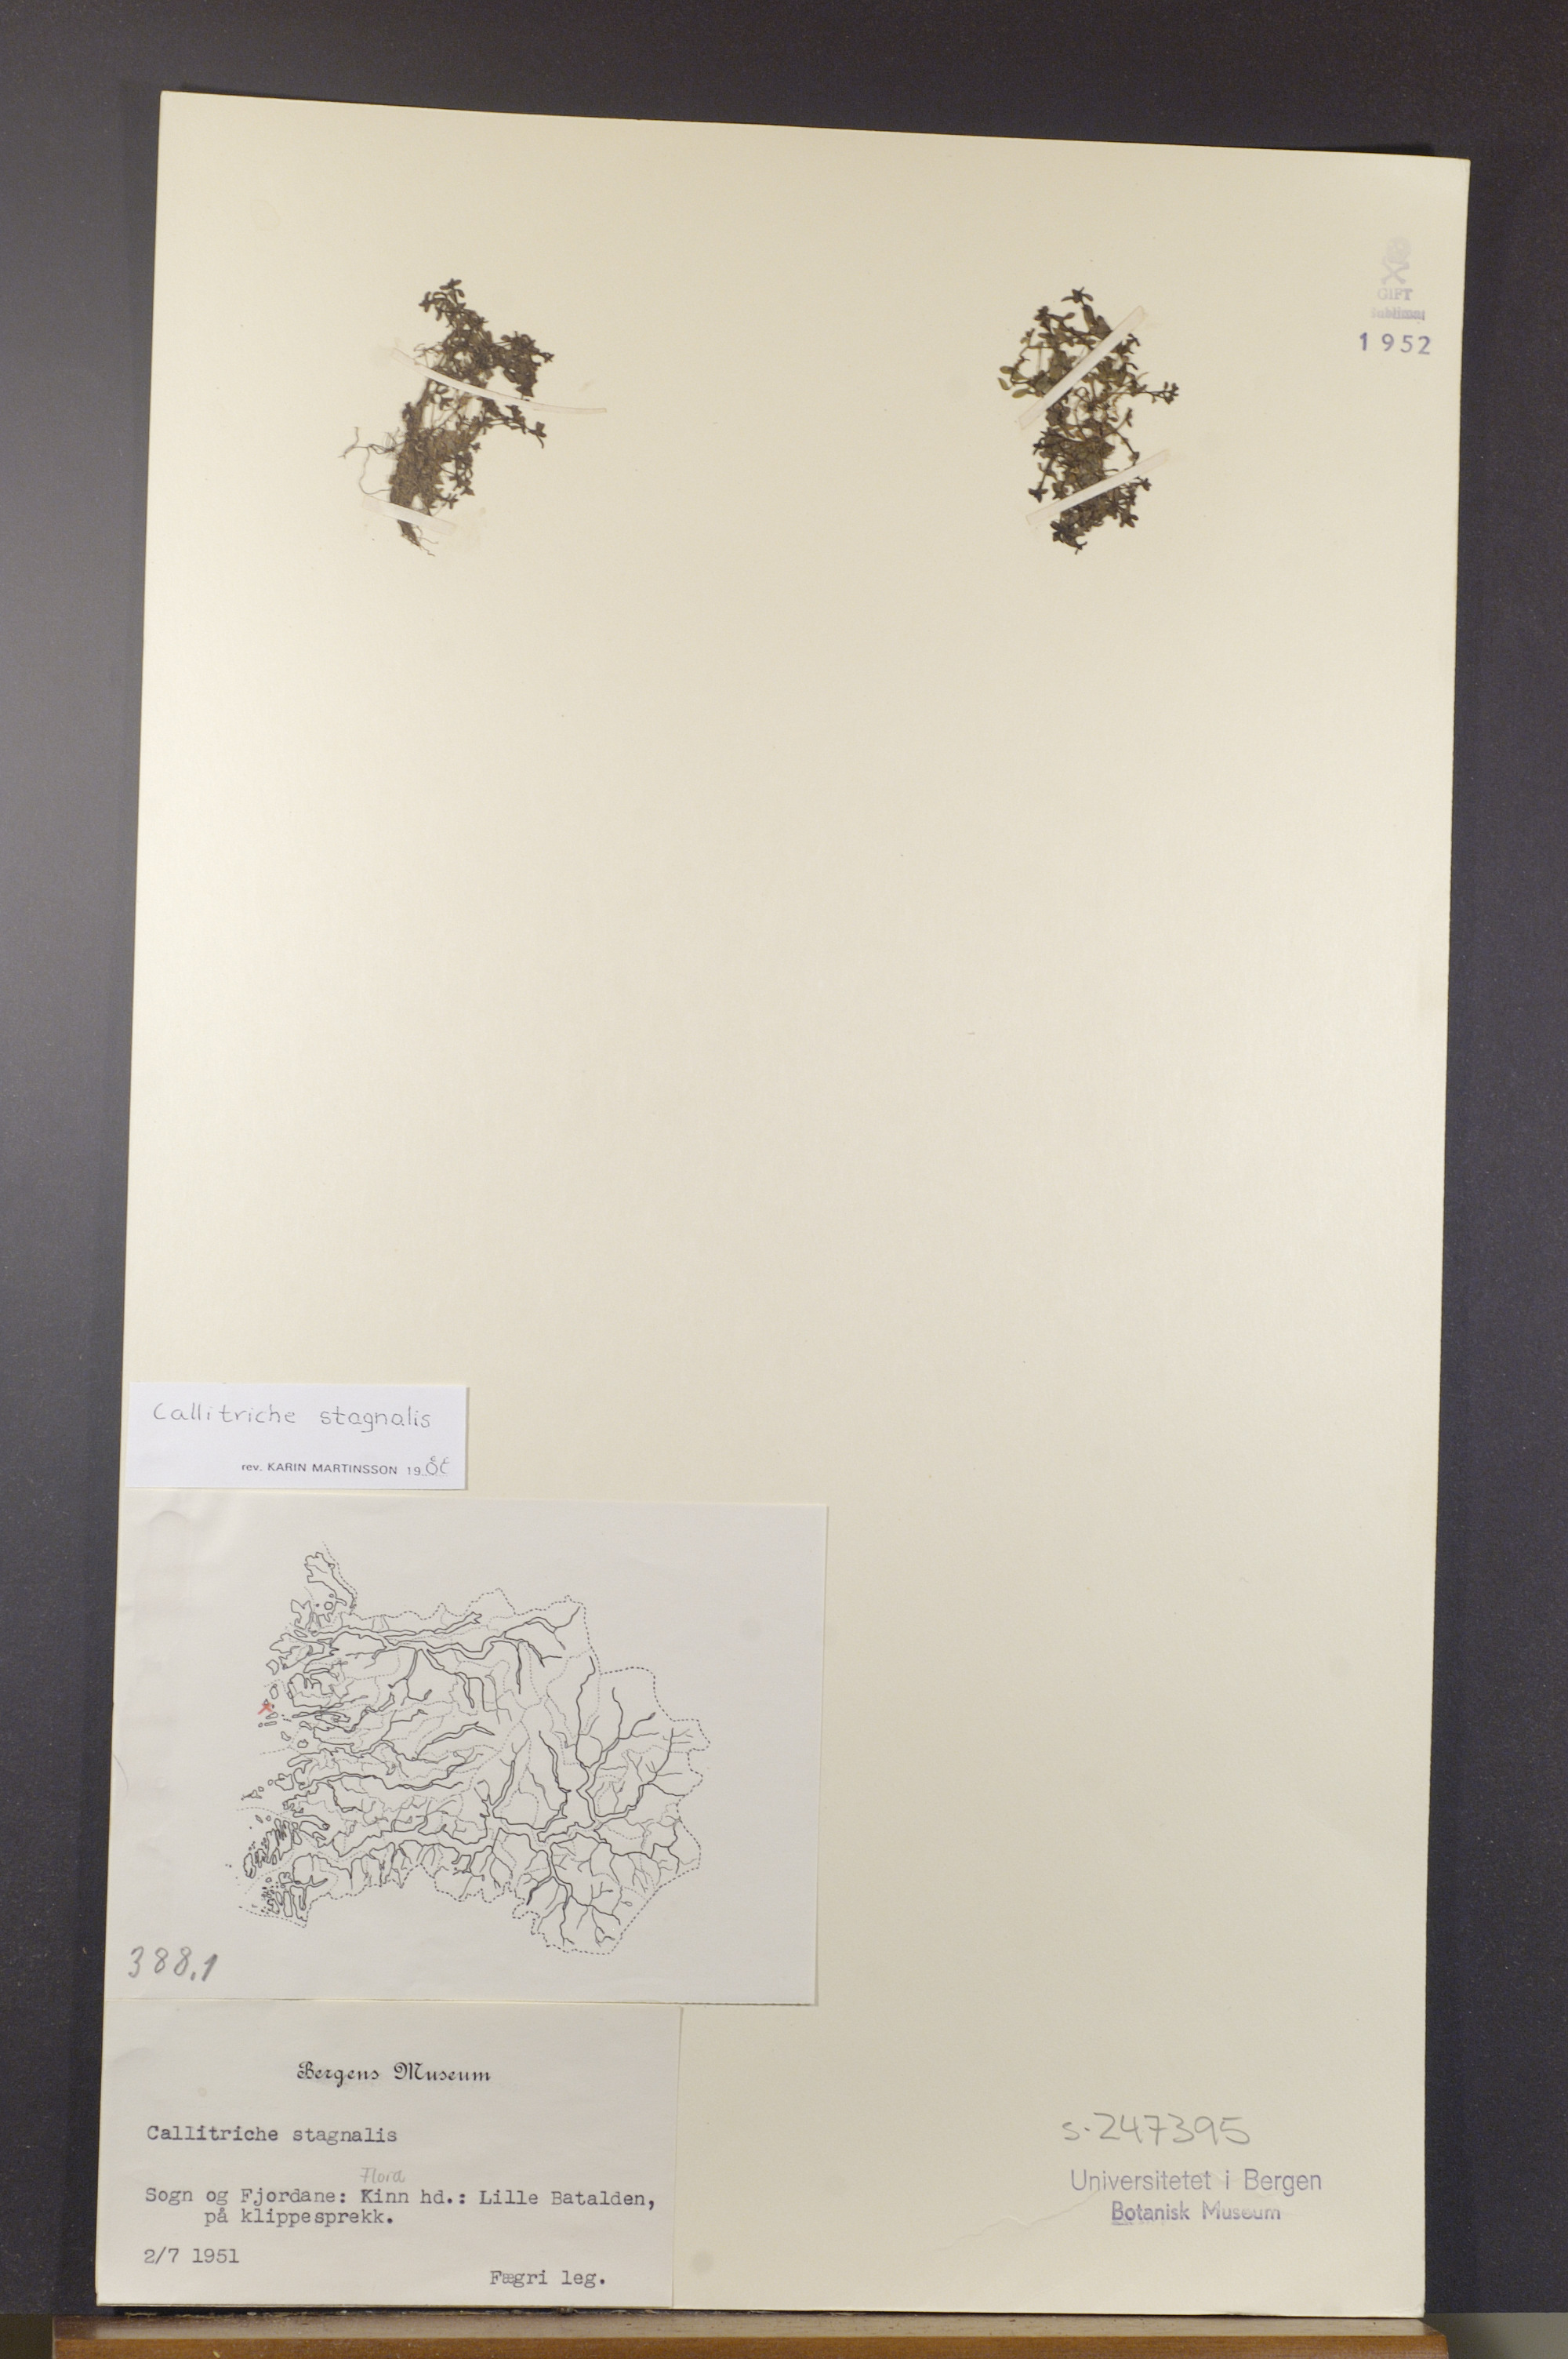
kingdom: Plantae
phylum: Tracheophyta
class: Magnoliopsida
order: Lamiales
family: Plantaginaceae
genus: Callitriche
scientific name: Callitriche stagnalis
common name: Common water-starwort
